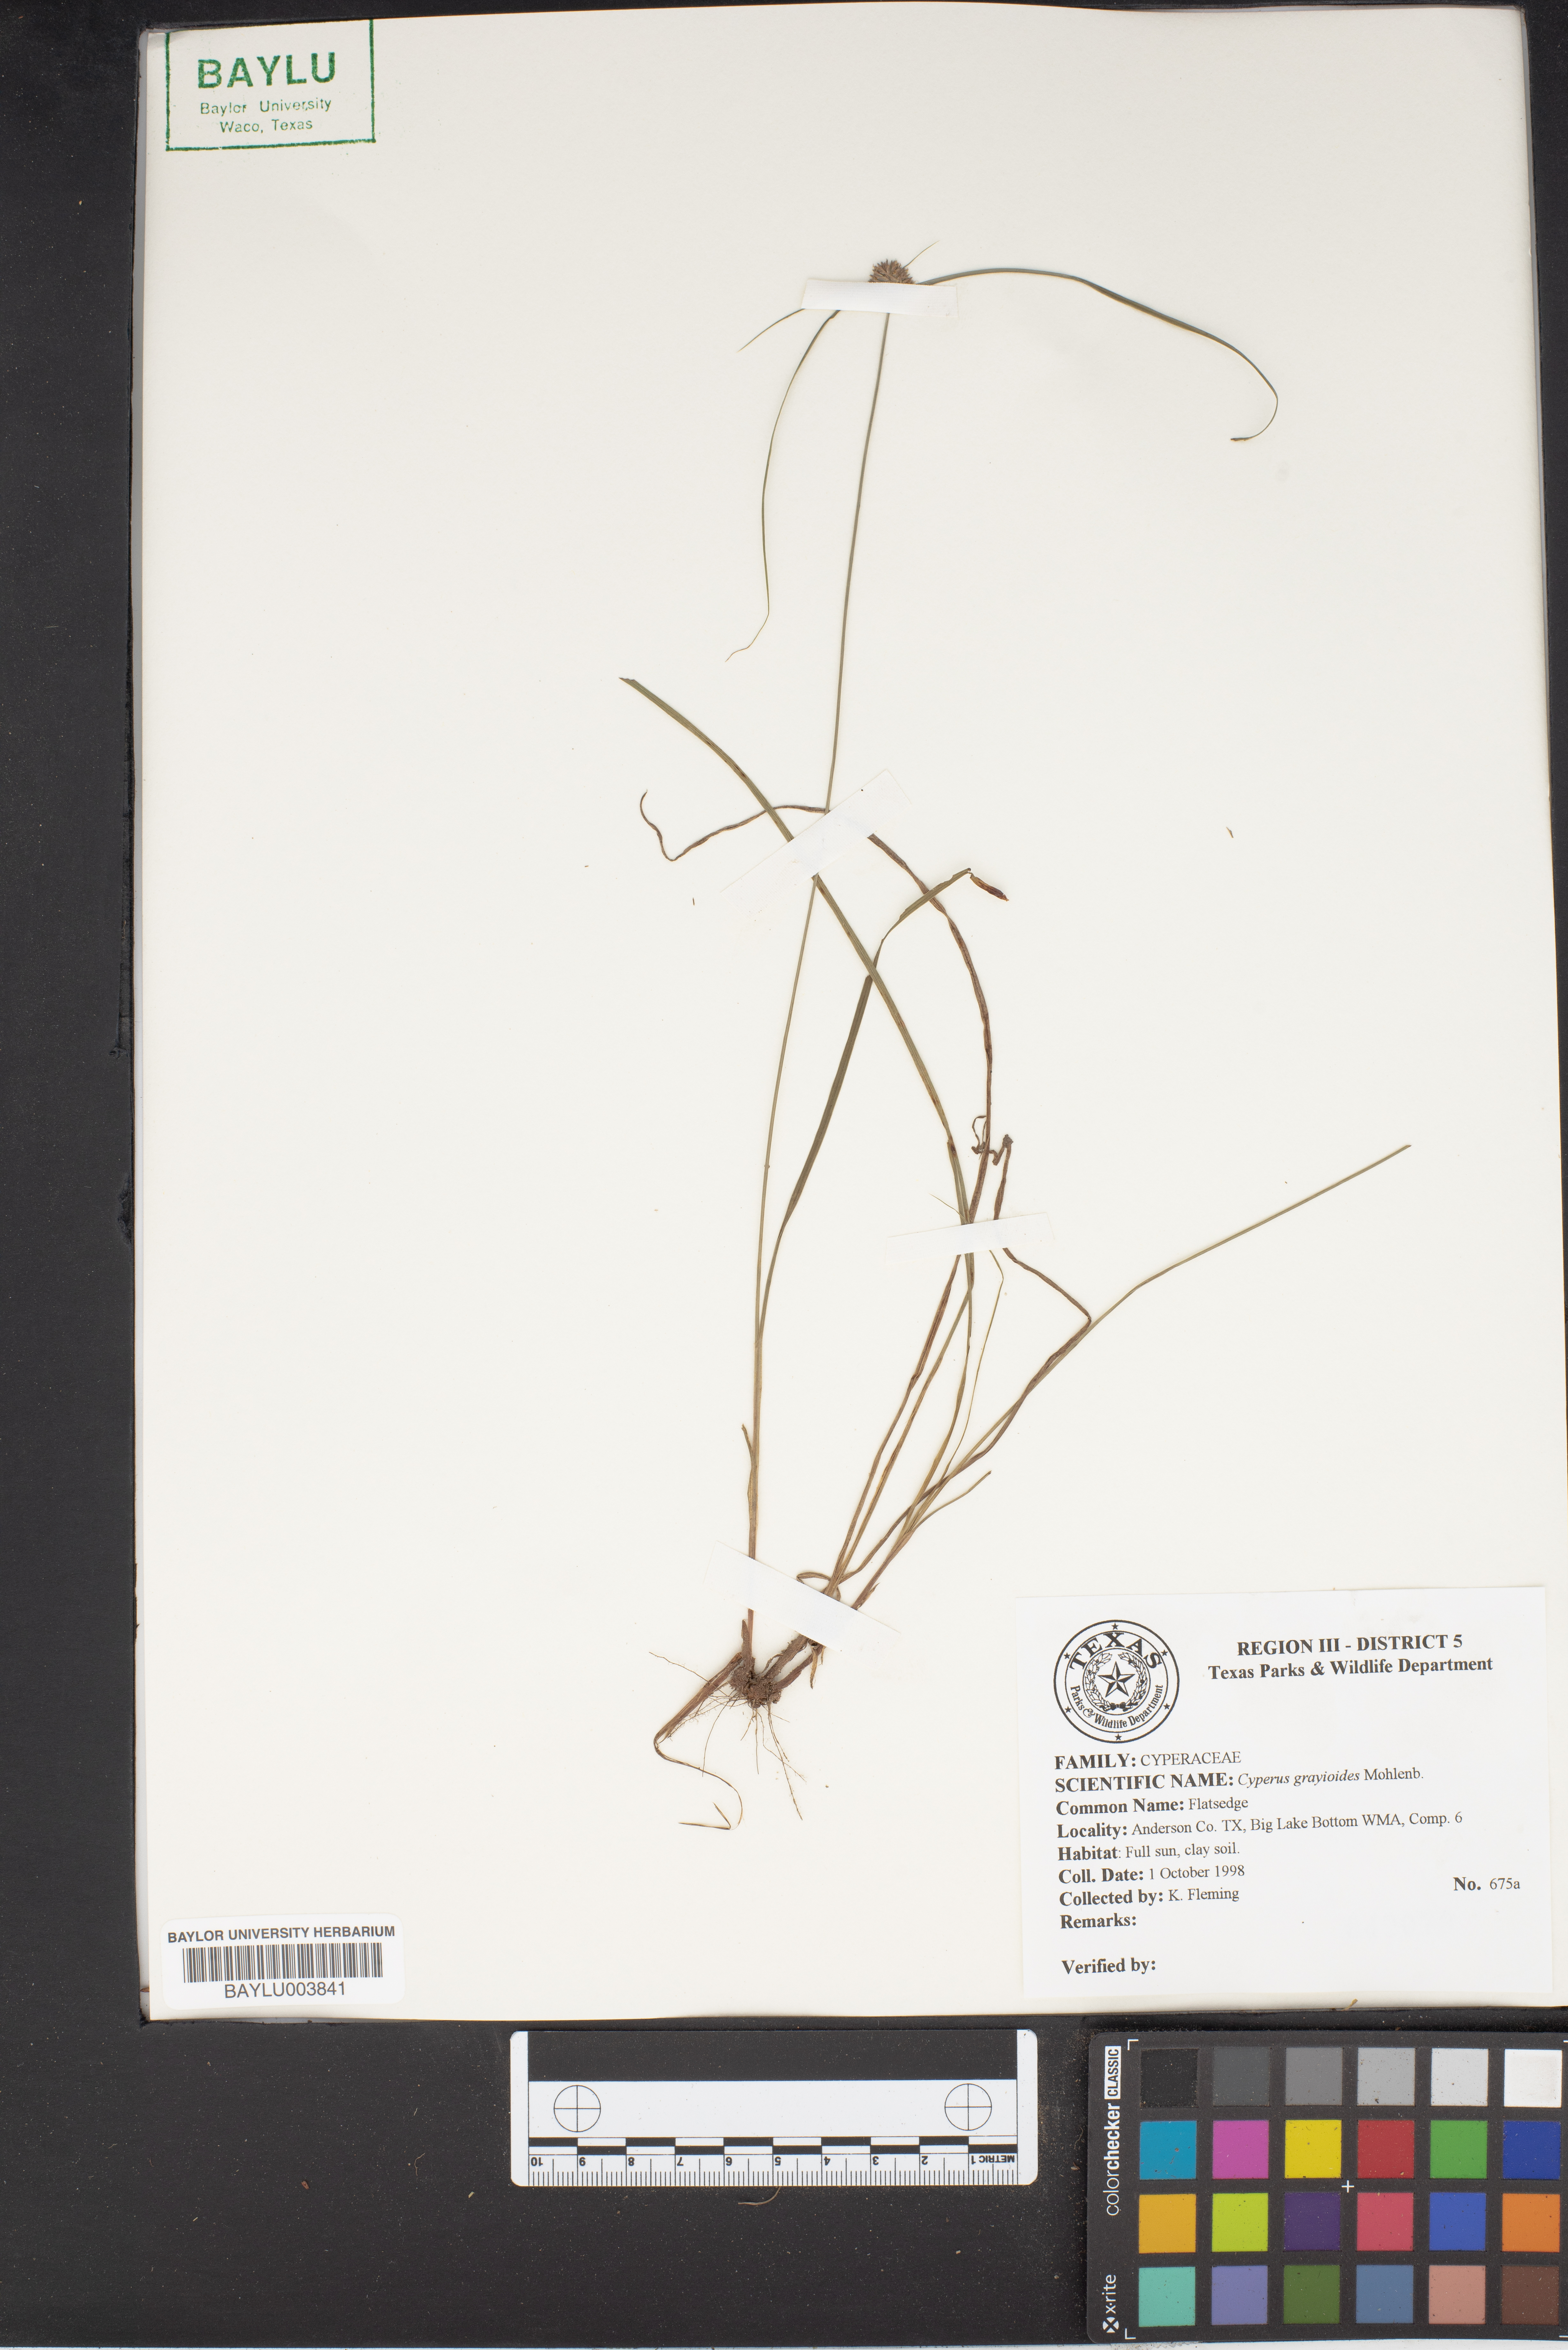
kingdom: Plantae
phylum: Tracheophyta
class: Liliopsida
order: Poales
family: Cyperaceae
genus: Cyperus
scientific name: Cyperus grayioides
